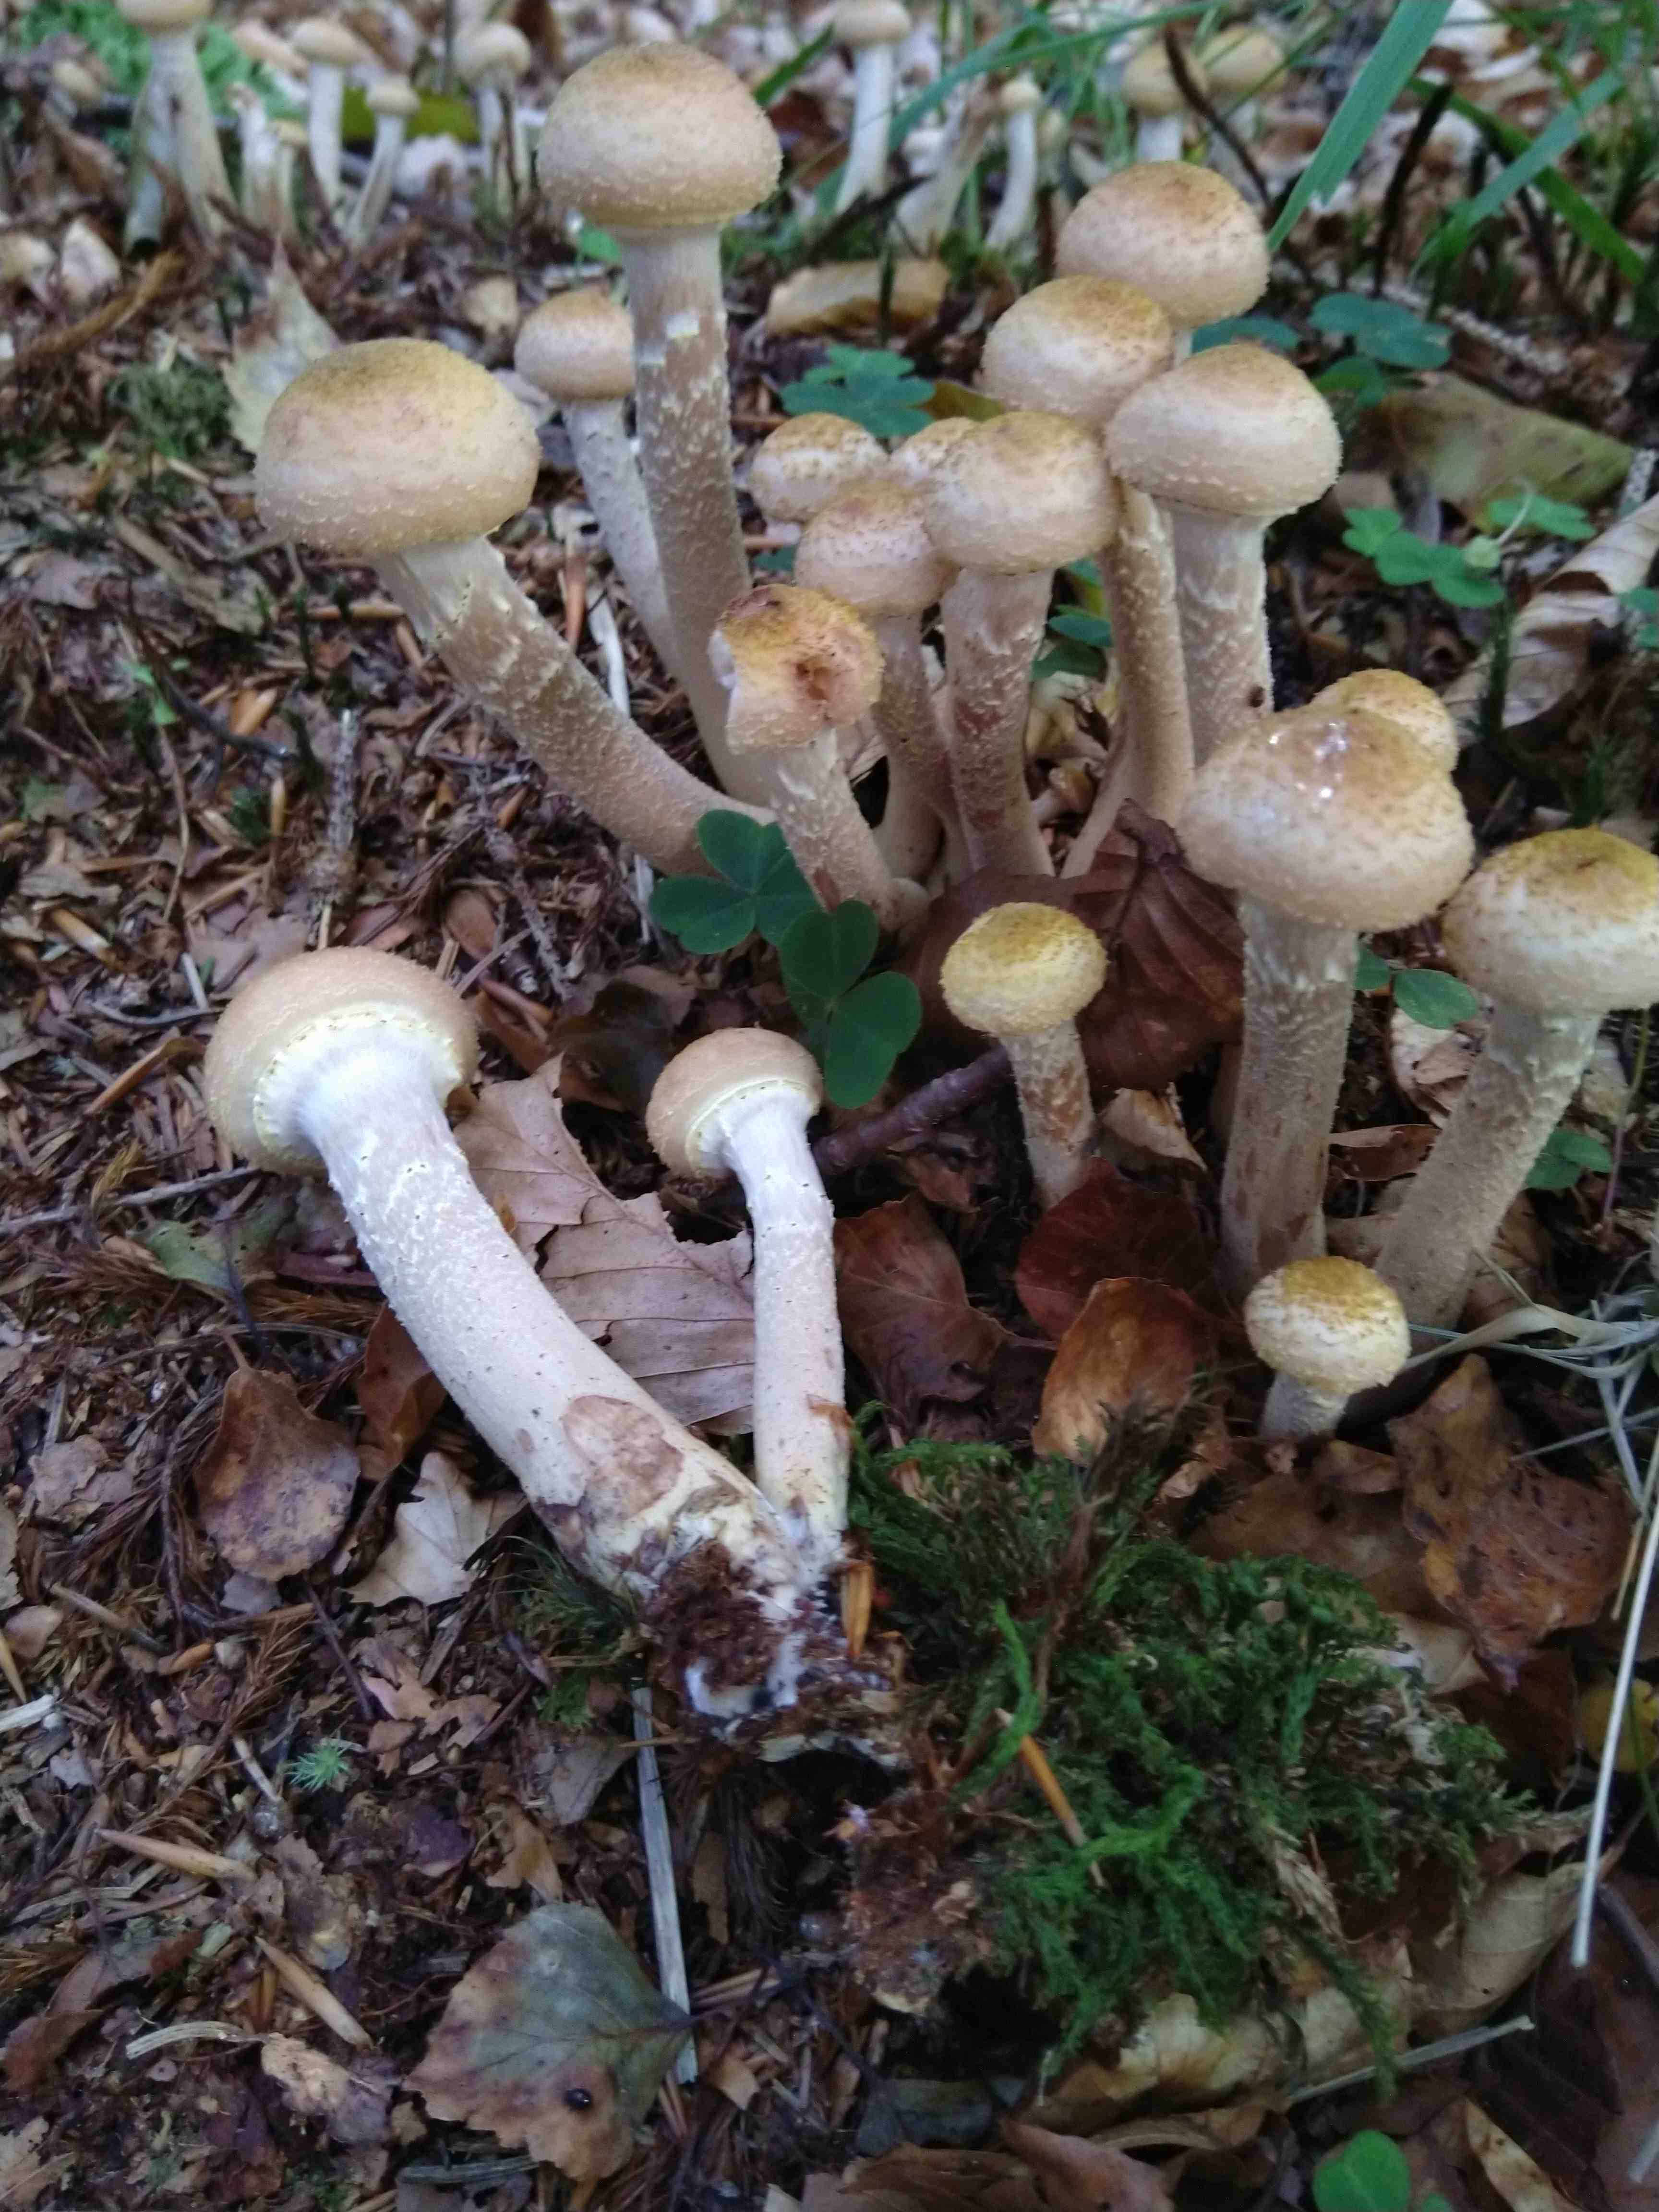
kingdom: Fungi
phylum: Basidiomycota
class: Agaricomycetes
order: Agaricales
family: Physalacriaceae
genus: Armillaria
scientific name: Armillaria lutea
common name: køllestokket honningsvamp
